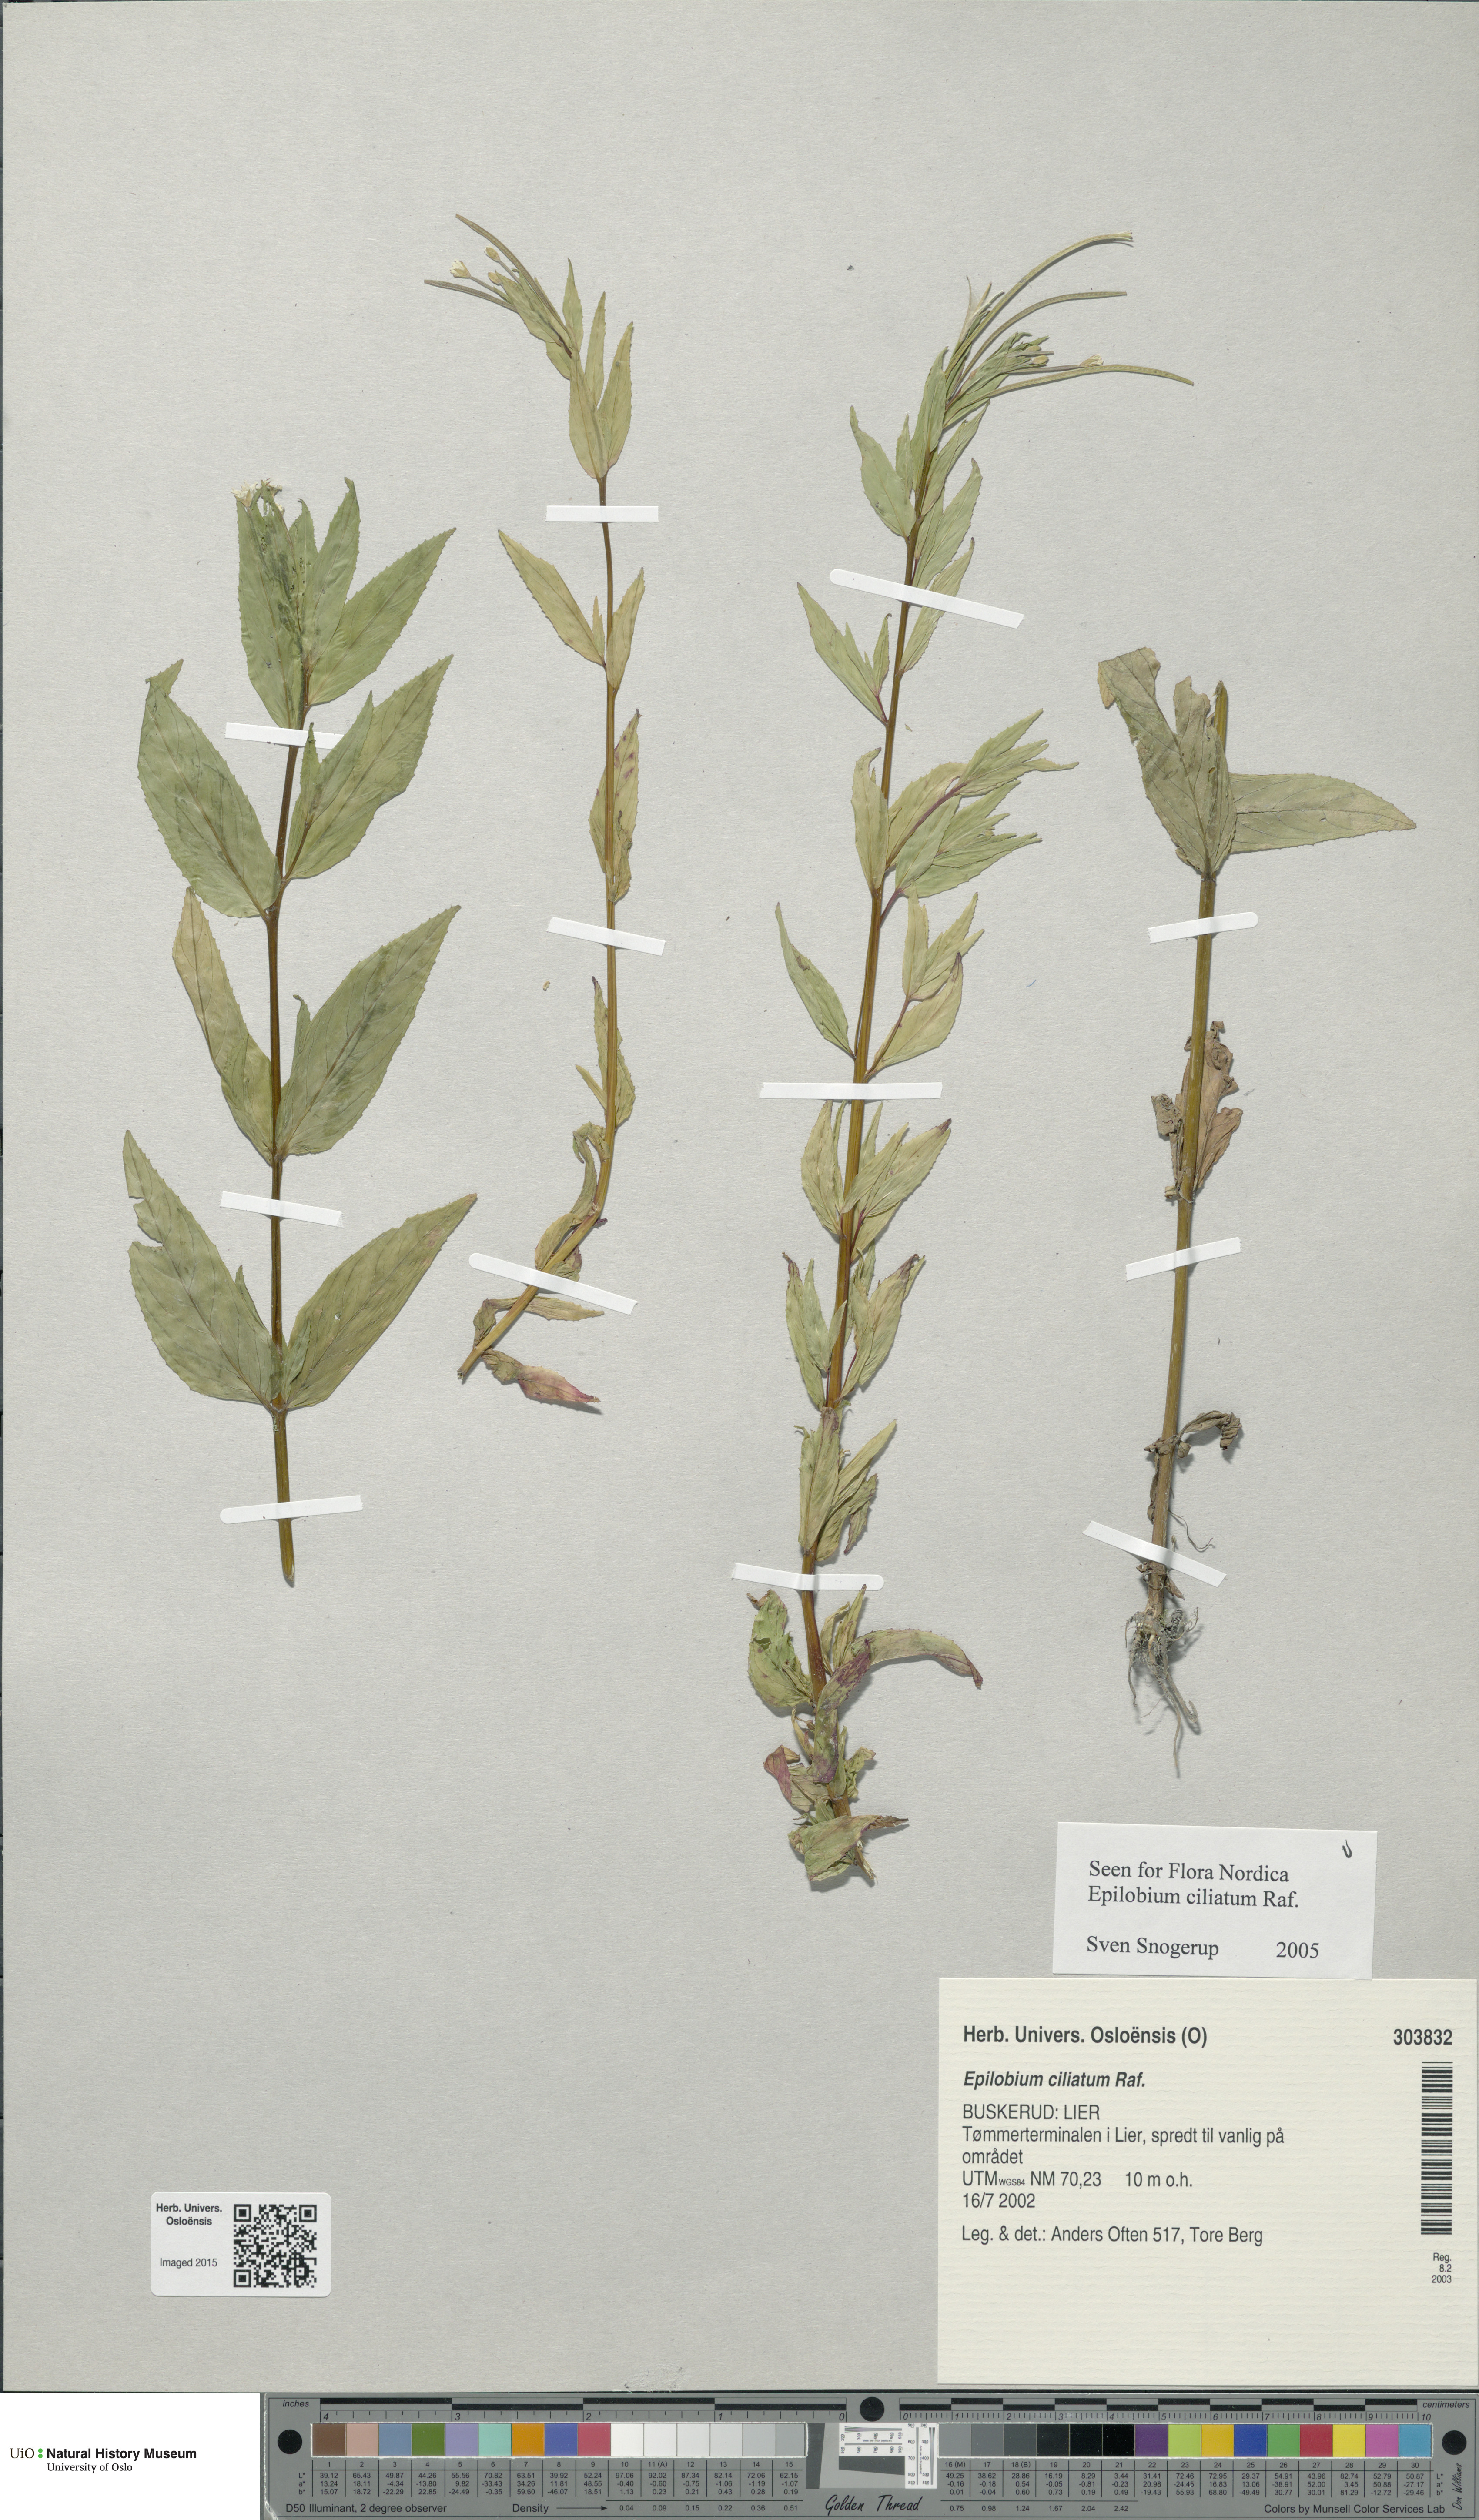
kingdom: Plantae
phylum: Tracheophyta
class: Magnoliopsida
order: Myrtales
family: Onagraceae
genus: Epilobium
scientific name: Epilobium ciliatum
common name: American willowherb
